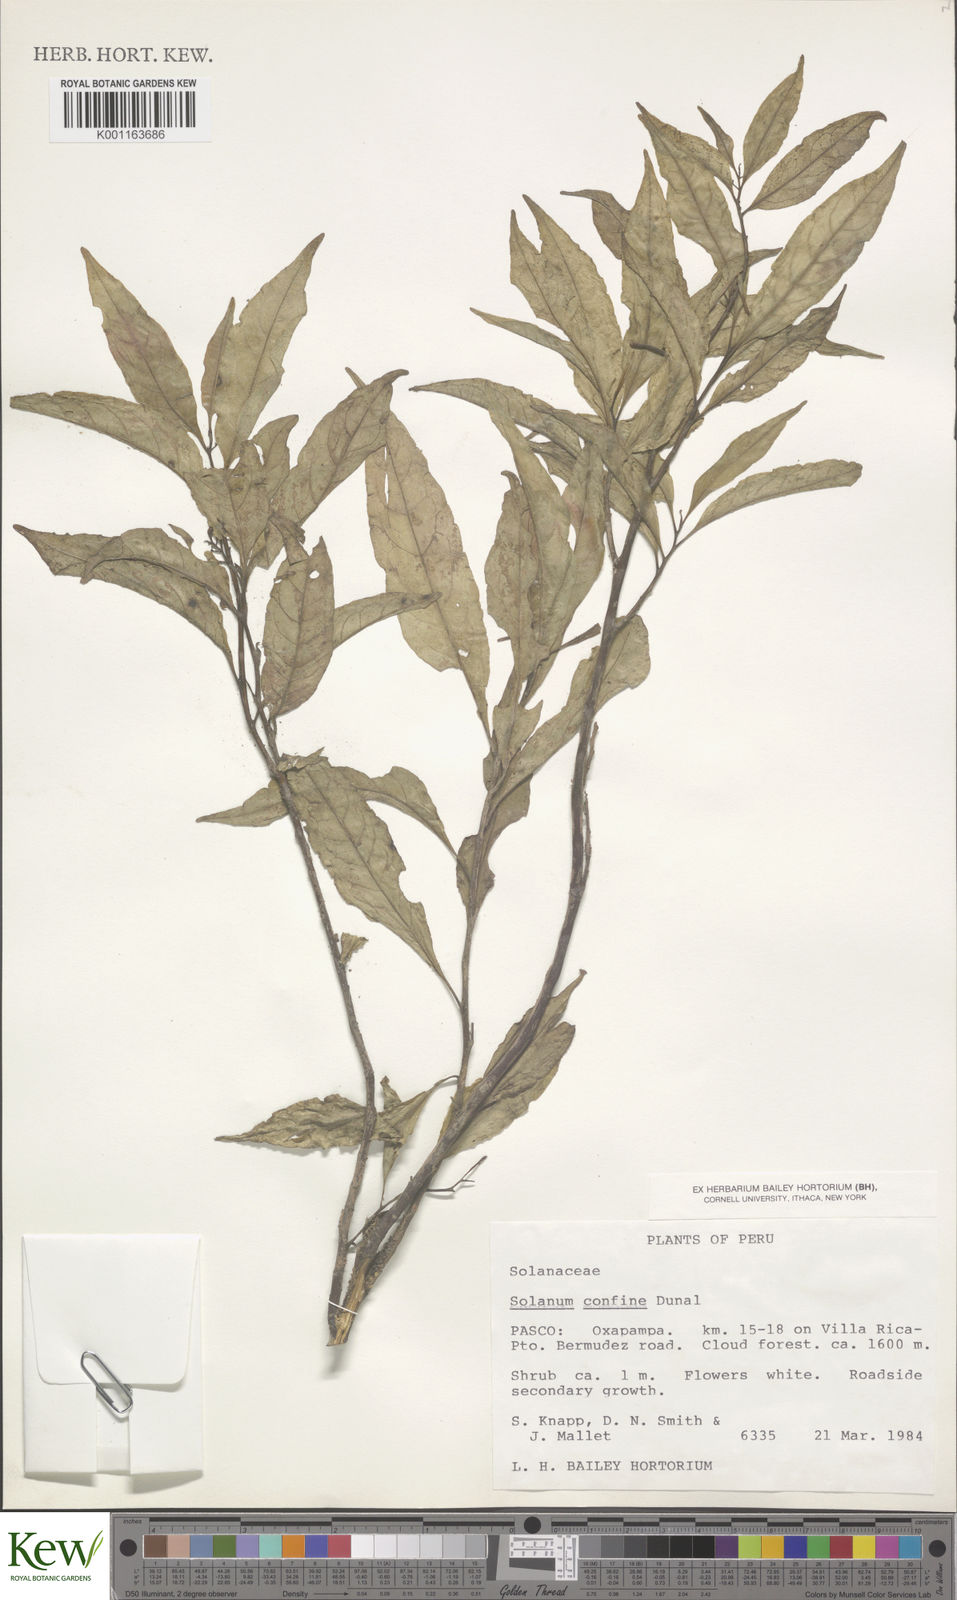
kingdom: Plantae
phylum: Tracheophyta
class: Magnoliopsida
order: Solanales
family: Solanaceae
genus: Solanum
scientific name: Solanum confine
